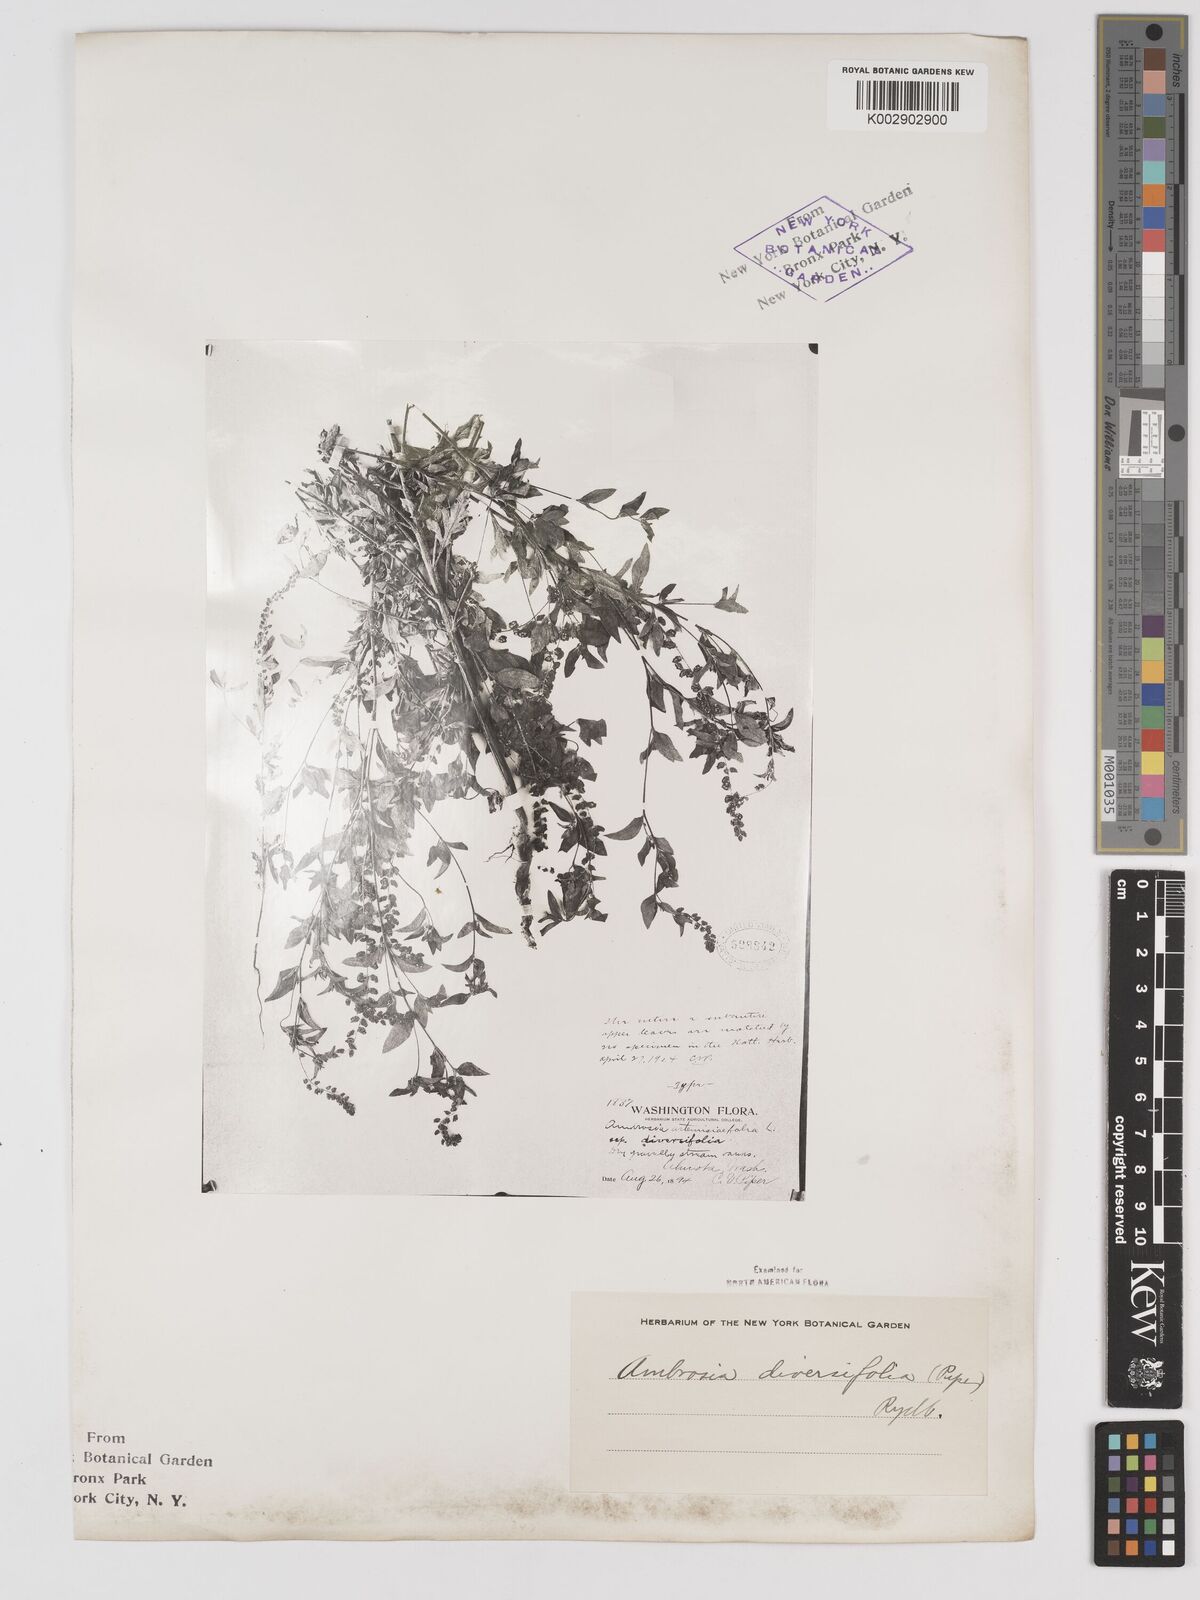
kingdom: Plantae
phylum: Tracheophyta
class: Magnoliopsida
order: Asterales
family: Asteraceae
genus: Ambrosia
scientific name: Ambrosia artemisiifolia
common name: Annual ragweed
